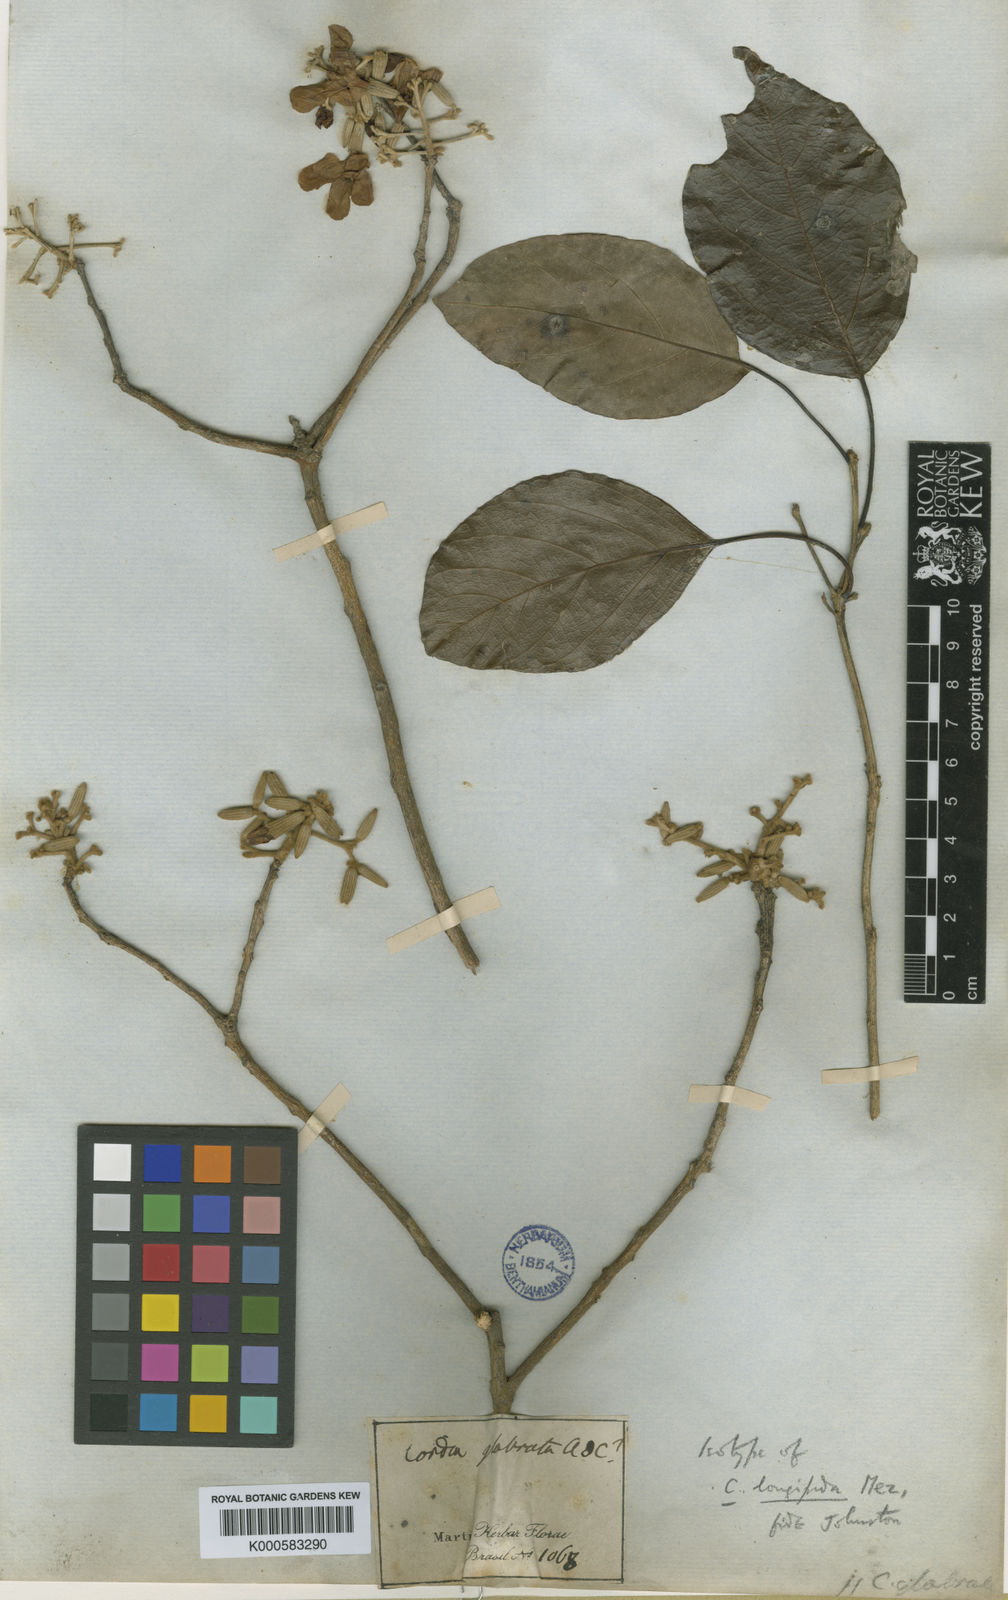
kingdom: Plantae
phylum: Tracheophyta
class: Magnoliopsida
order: Boraginales
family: Cordiaceae
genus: Cordia
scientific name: Cordia glabrata
